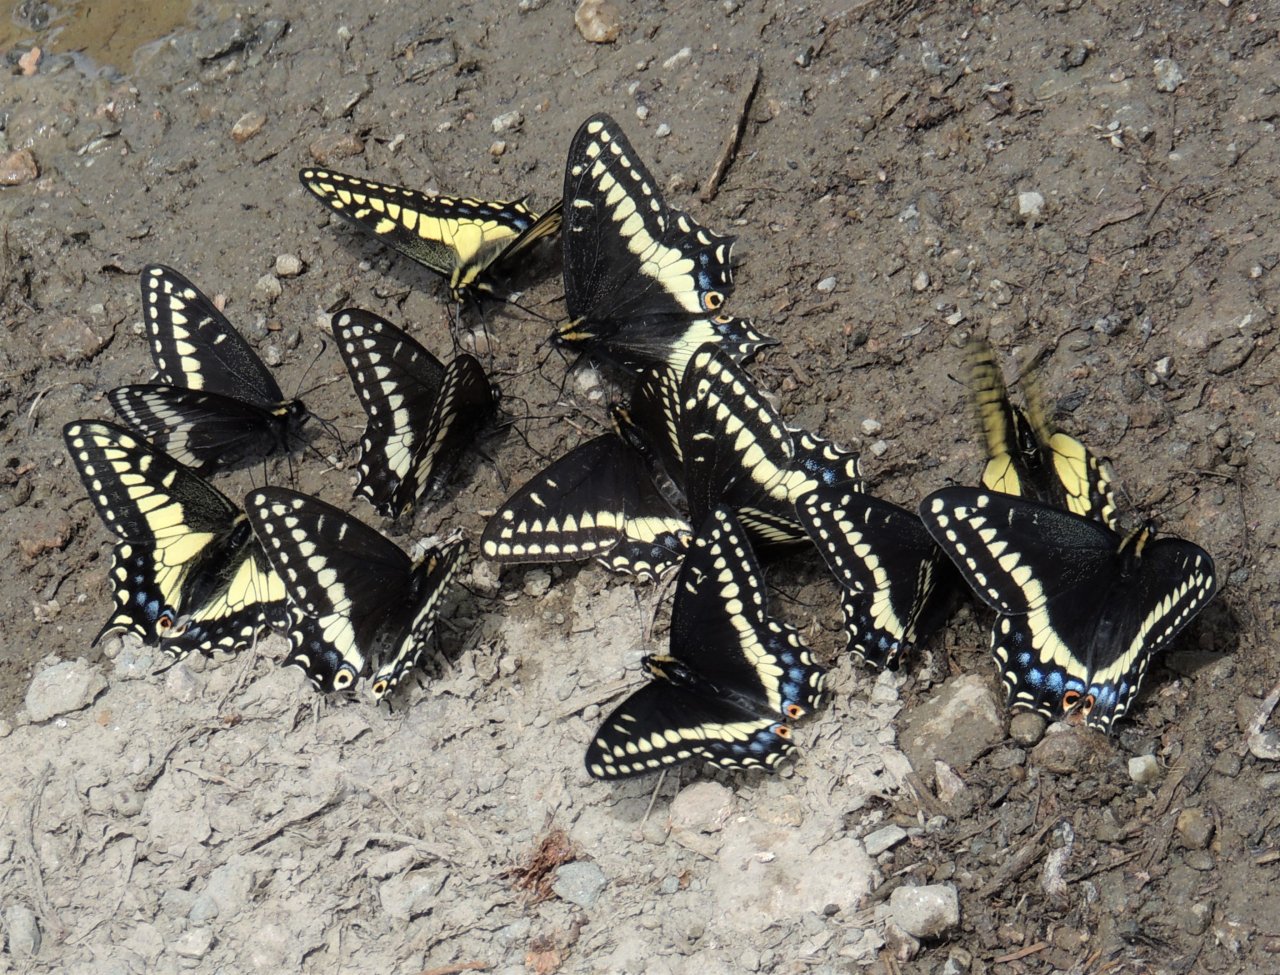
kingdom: Animalia
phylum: Arthropoda
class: Insecta
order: Lepidoptera
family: Papilionidae
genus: Papilio
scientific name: Papilio indra
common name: Indra Swallowtail
